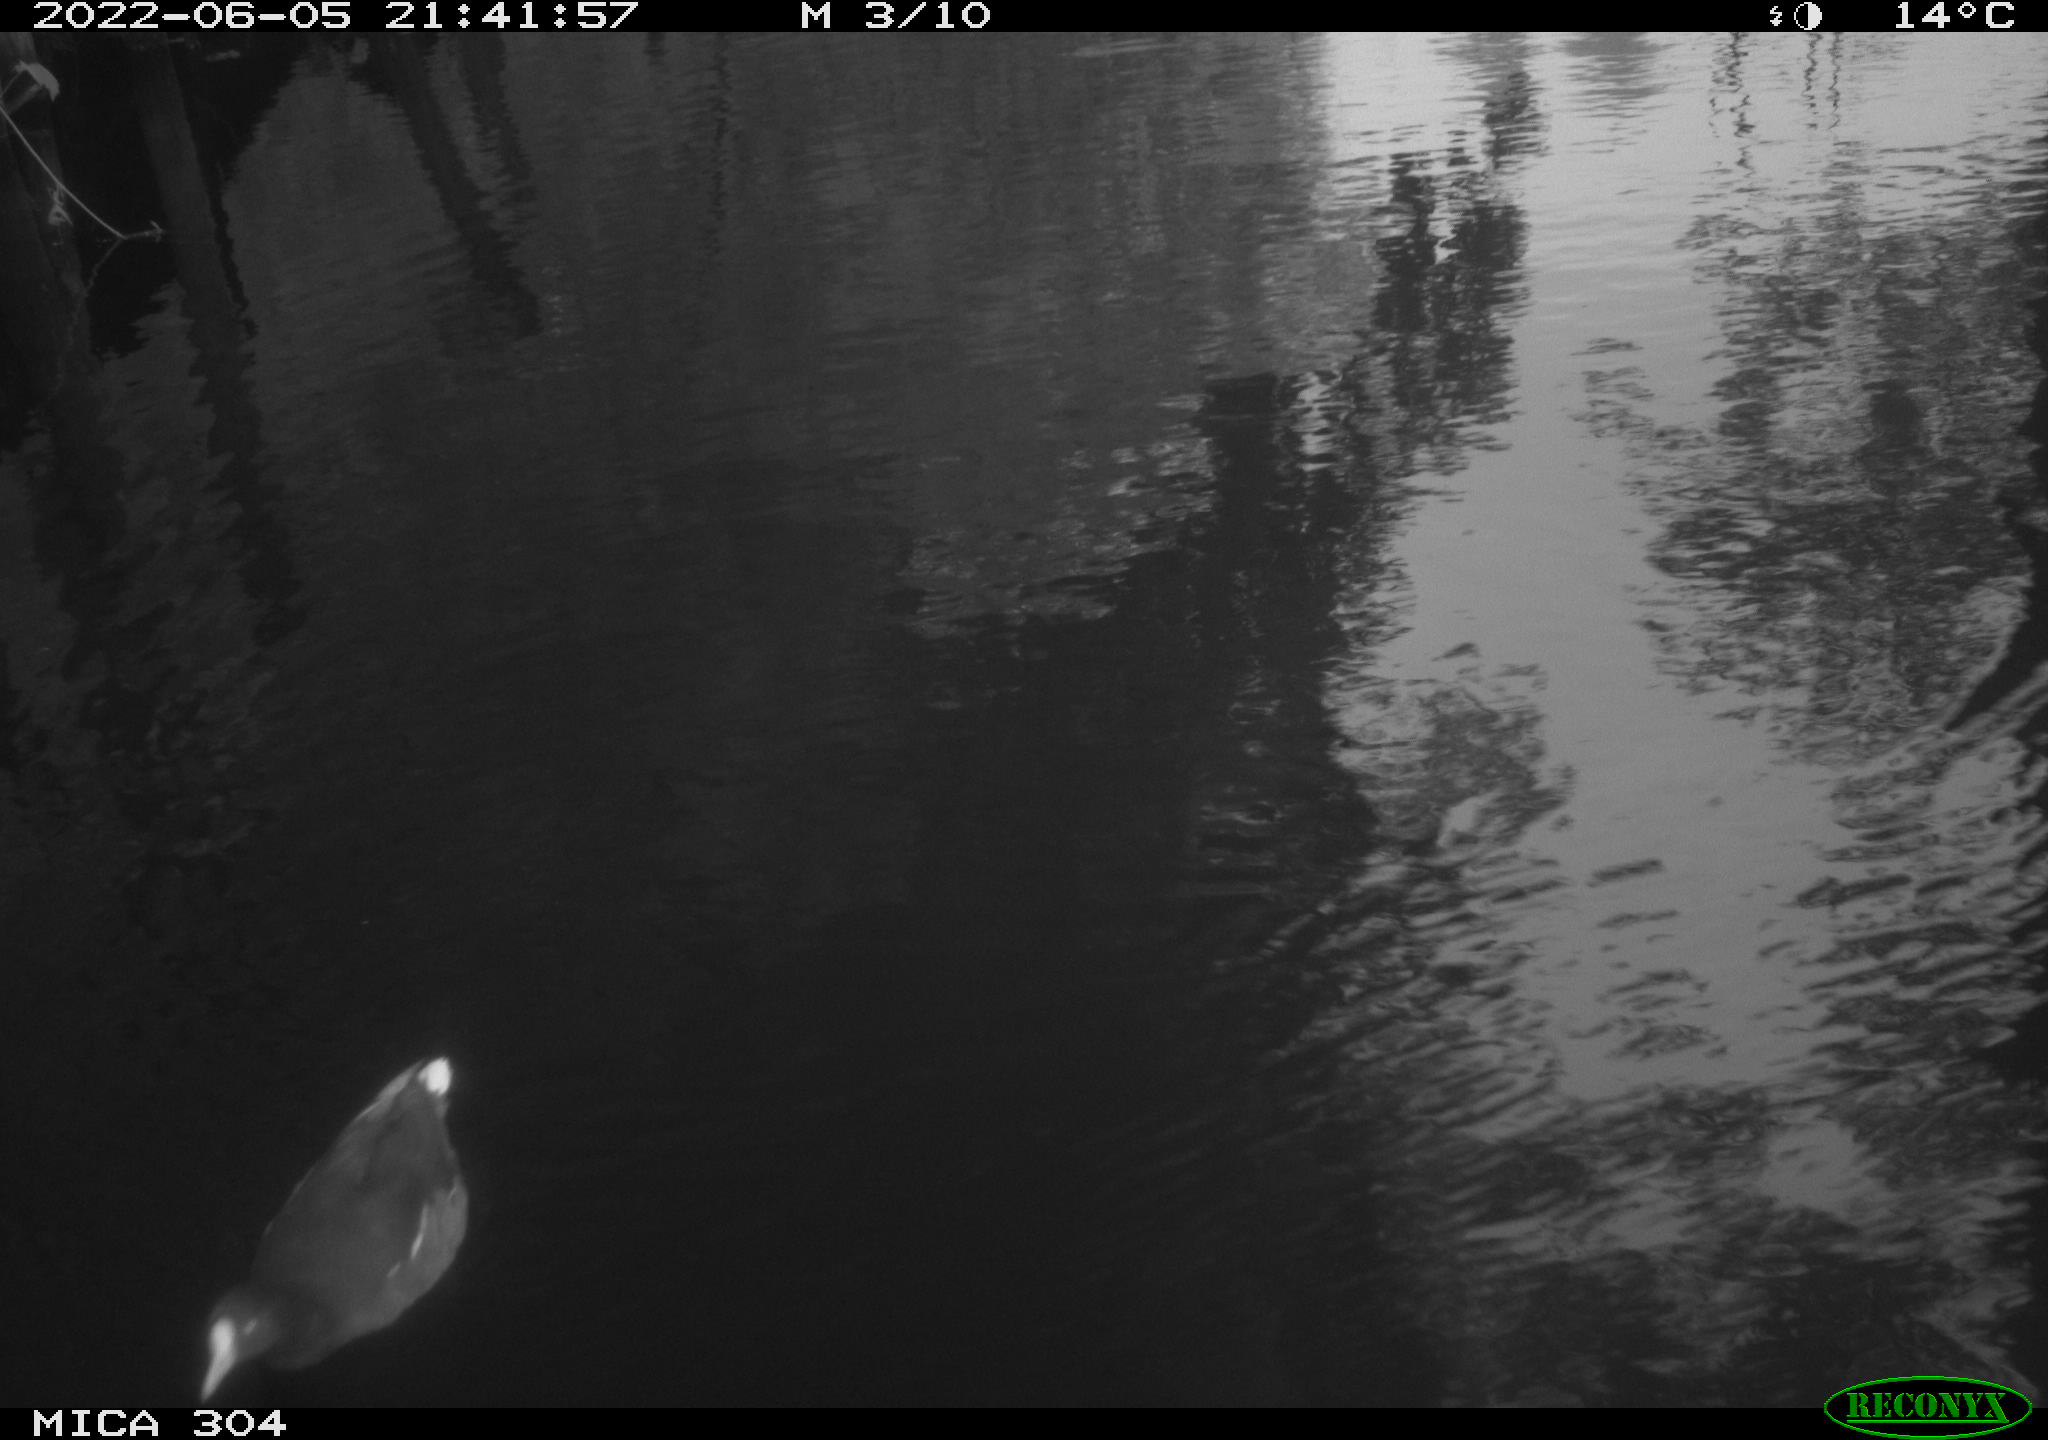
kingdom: Animalia
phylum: Chordata
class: Aves
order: Gruiformes
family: Rallidae
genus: Gallinula
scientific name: Gallinula chloropus
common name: Common moorhen
